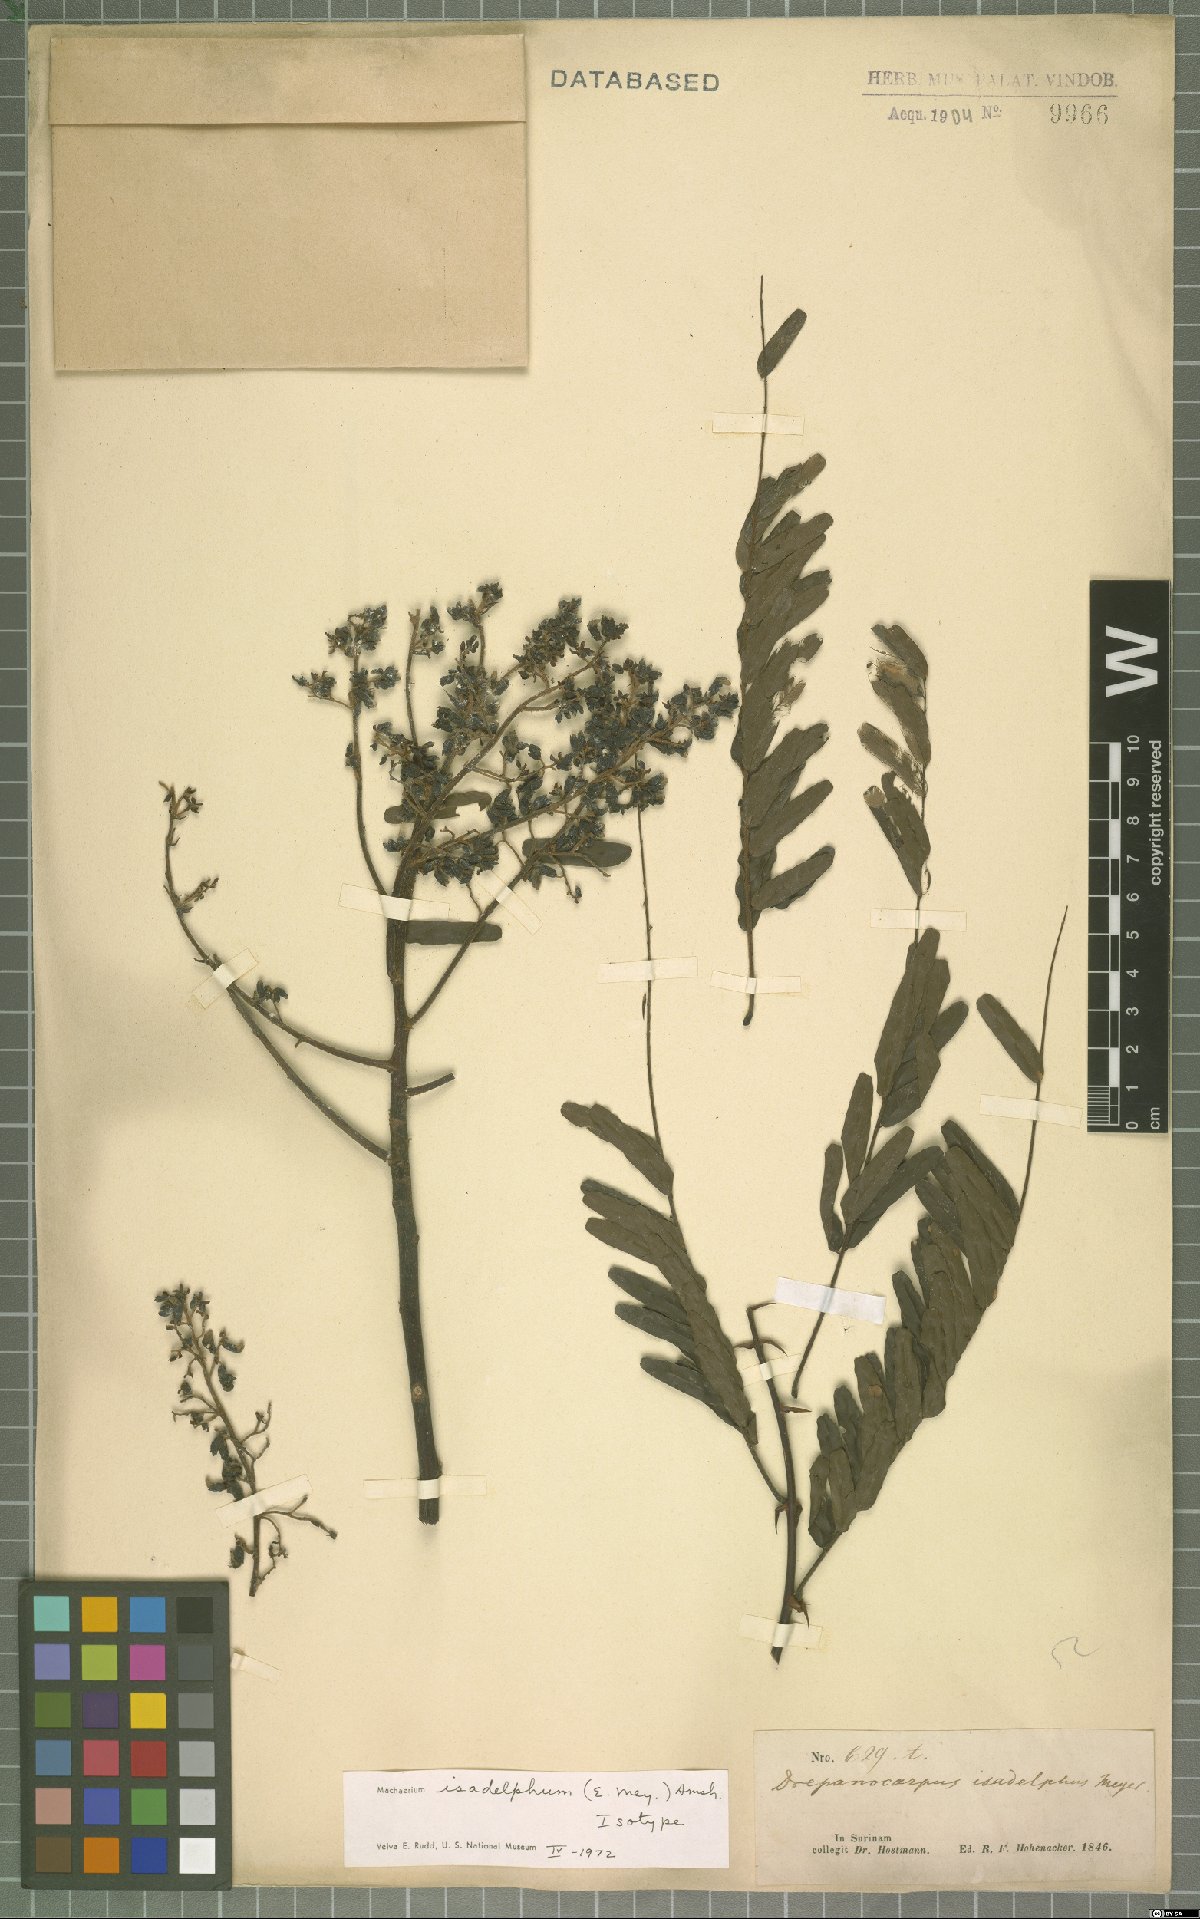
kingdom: Plantae
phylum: Tracheophyta
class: Magnoliopsida
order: Fabales
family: Fabaceae
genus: Machaerium
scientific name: Machaerium isadelphum
